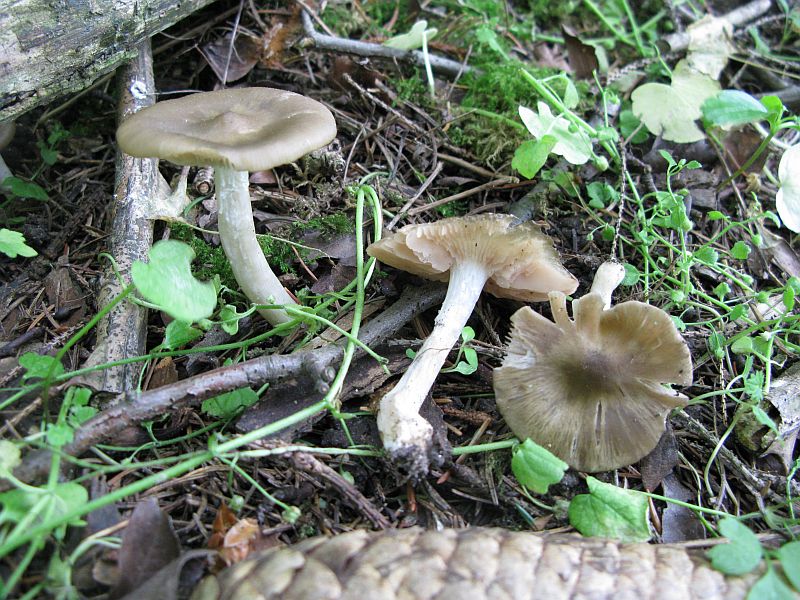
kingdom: Fungi
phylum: Basidiomycota
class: Agaricomycetes
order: Agaricales
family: Entolomataceae
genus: Entoloma
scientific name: Entoloma clypeatum
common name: flammet rødblad
